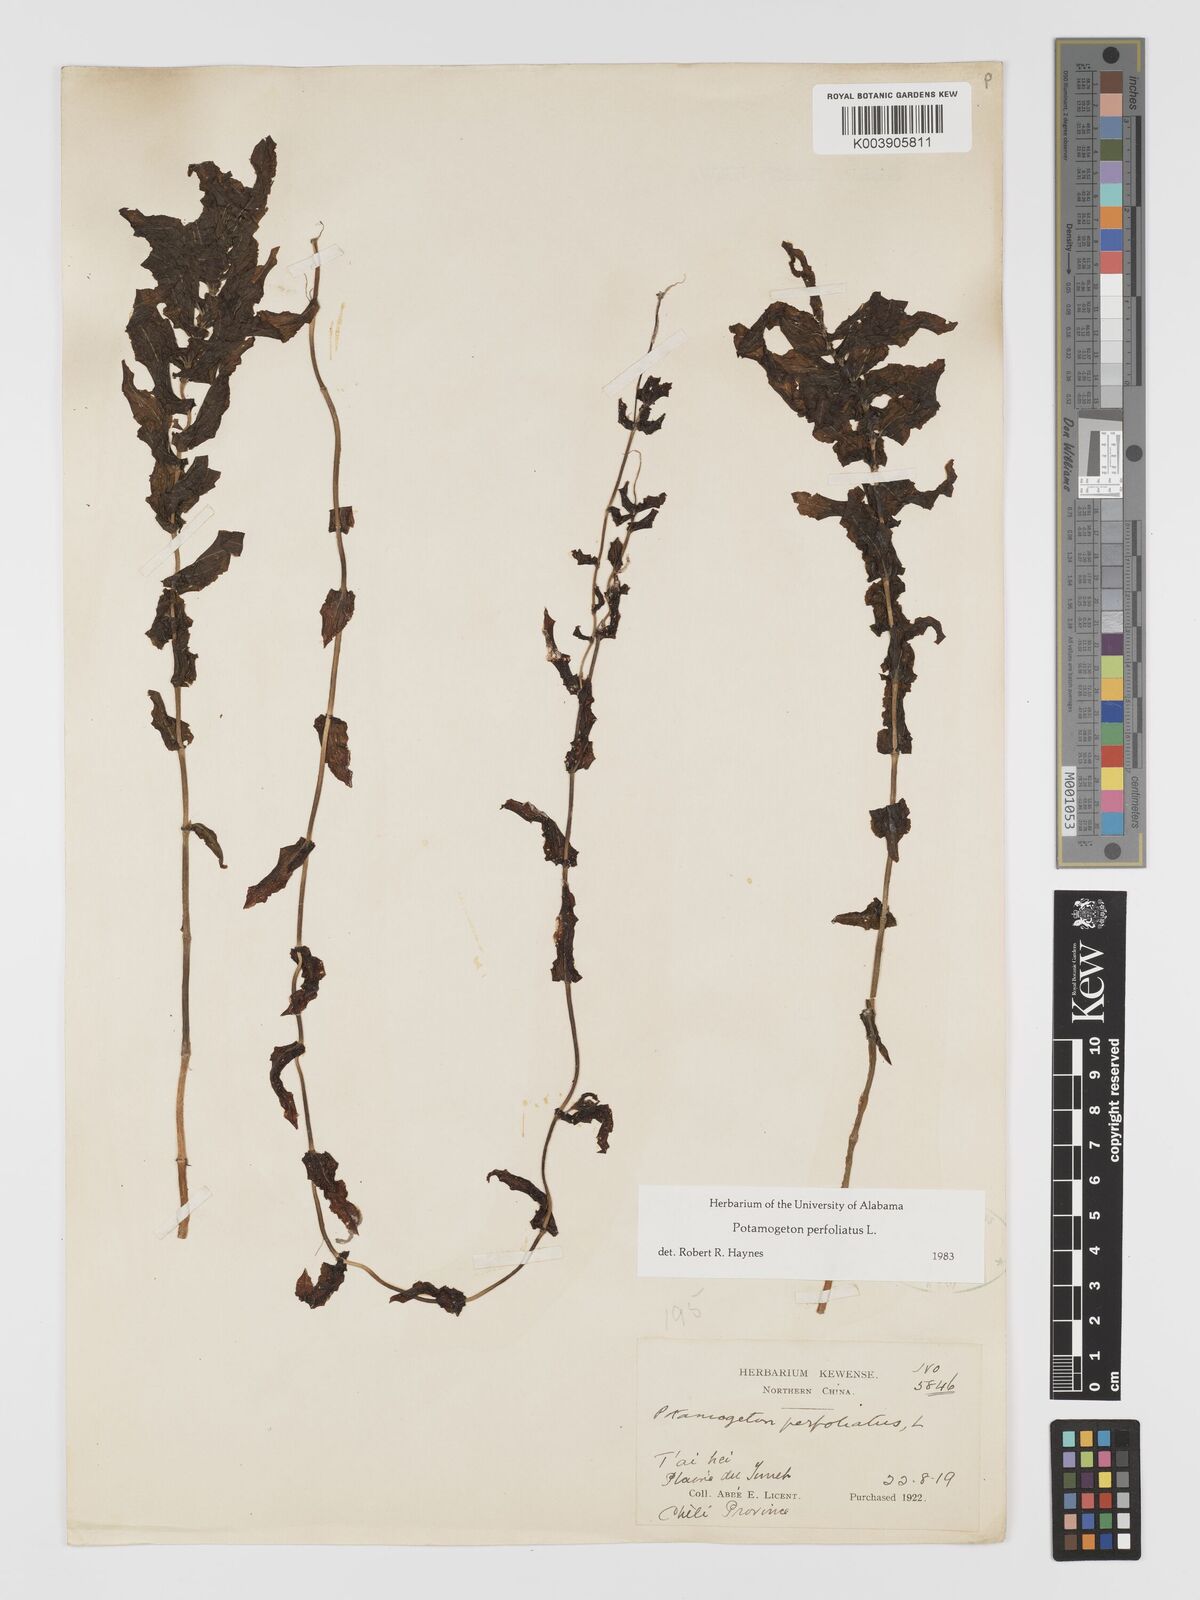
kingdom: Plantae
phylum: Tracheophyta
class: Liliopsida
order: Alismatales
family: Potamogetonaceae
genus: Potamogeton
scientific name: Potamogeton perfoliatus
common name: Perfoliate pondweed
